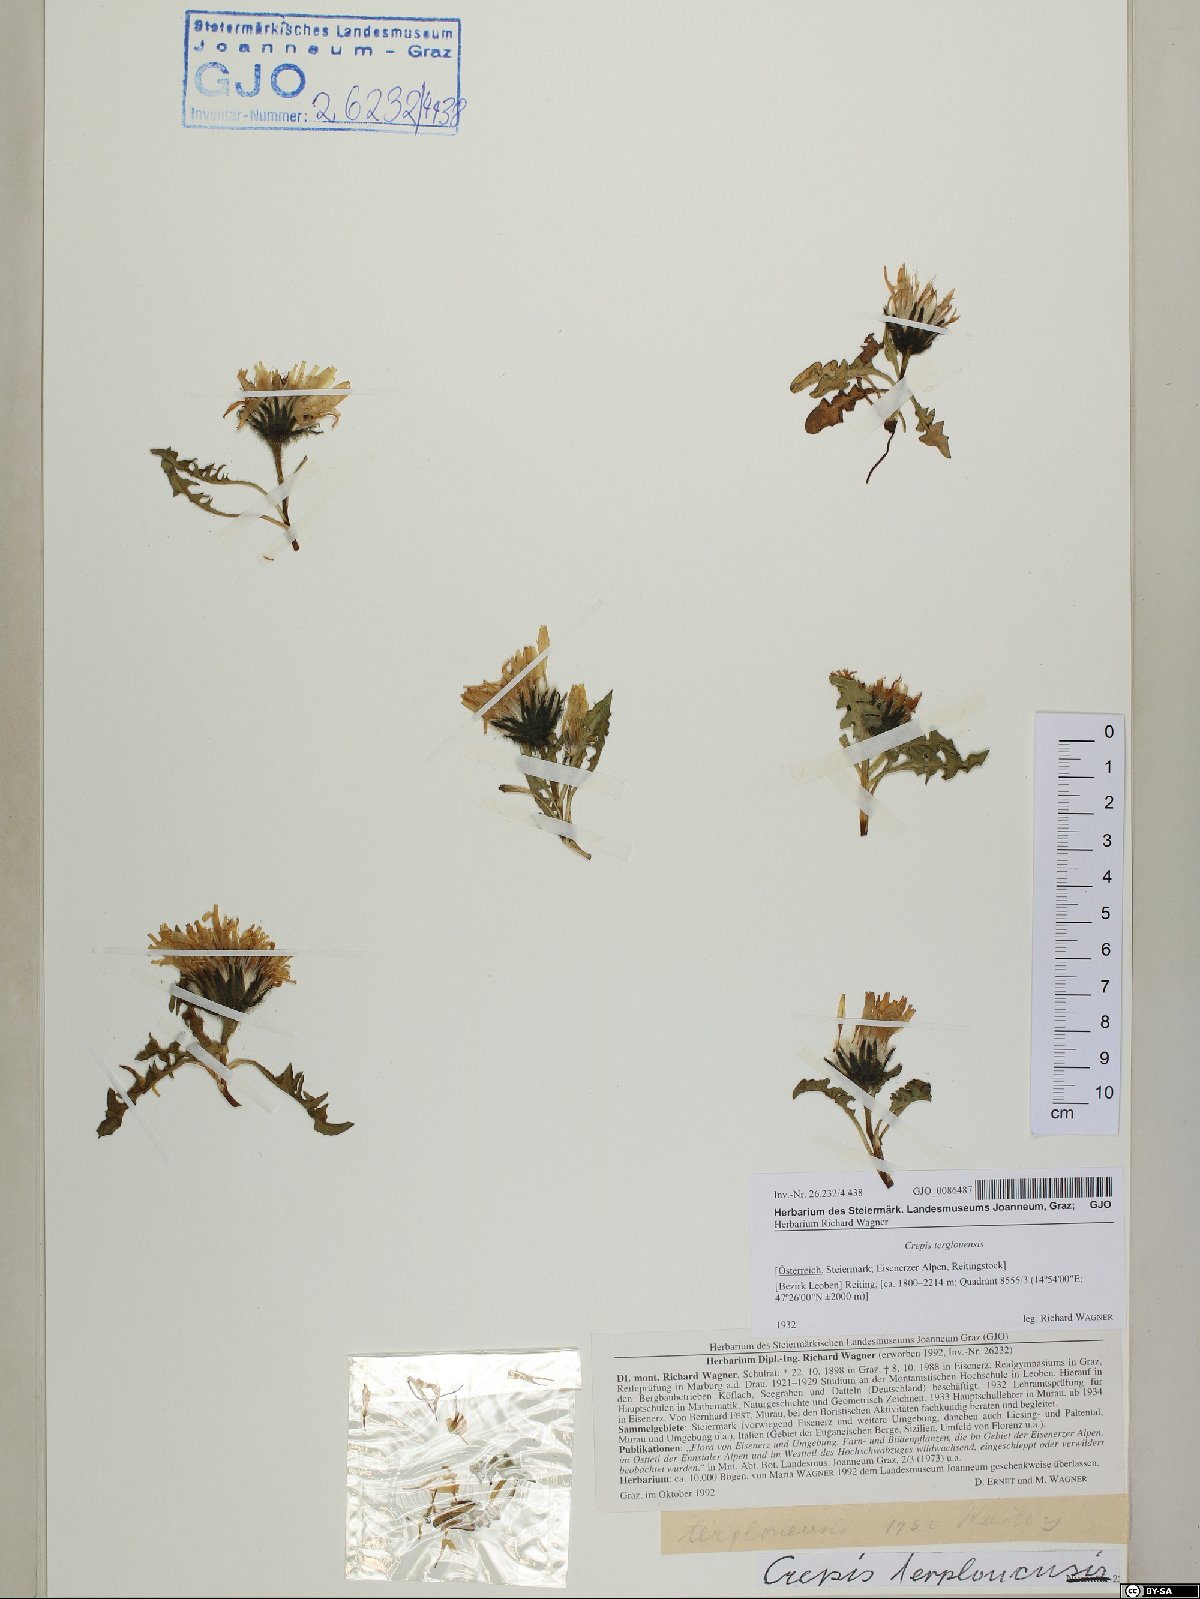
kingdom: Plantae
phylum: Tracheophyta
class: Magnoliopsida
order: Asterales
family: Asteraceae
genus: Crepis
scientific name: Crepis terglouensis
